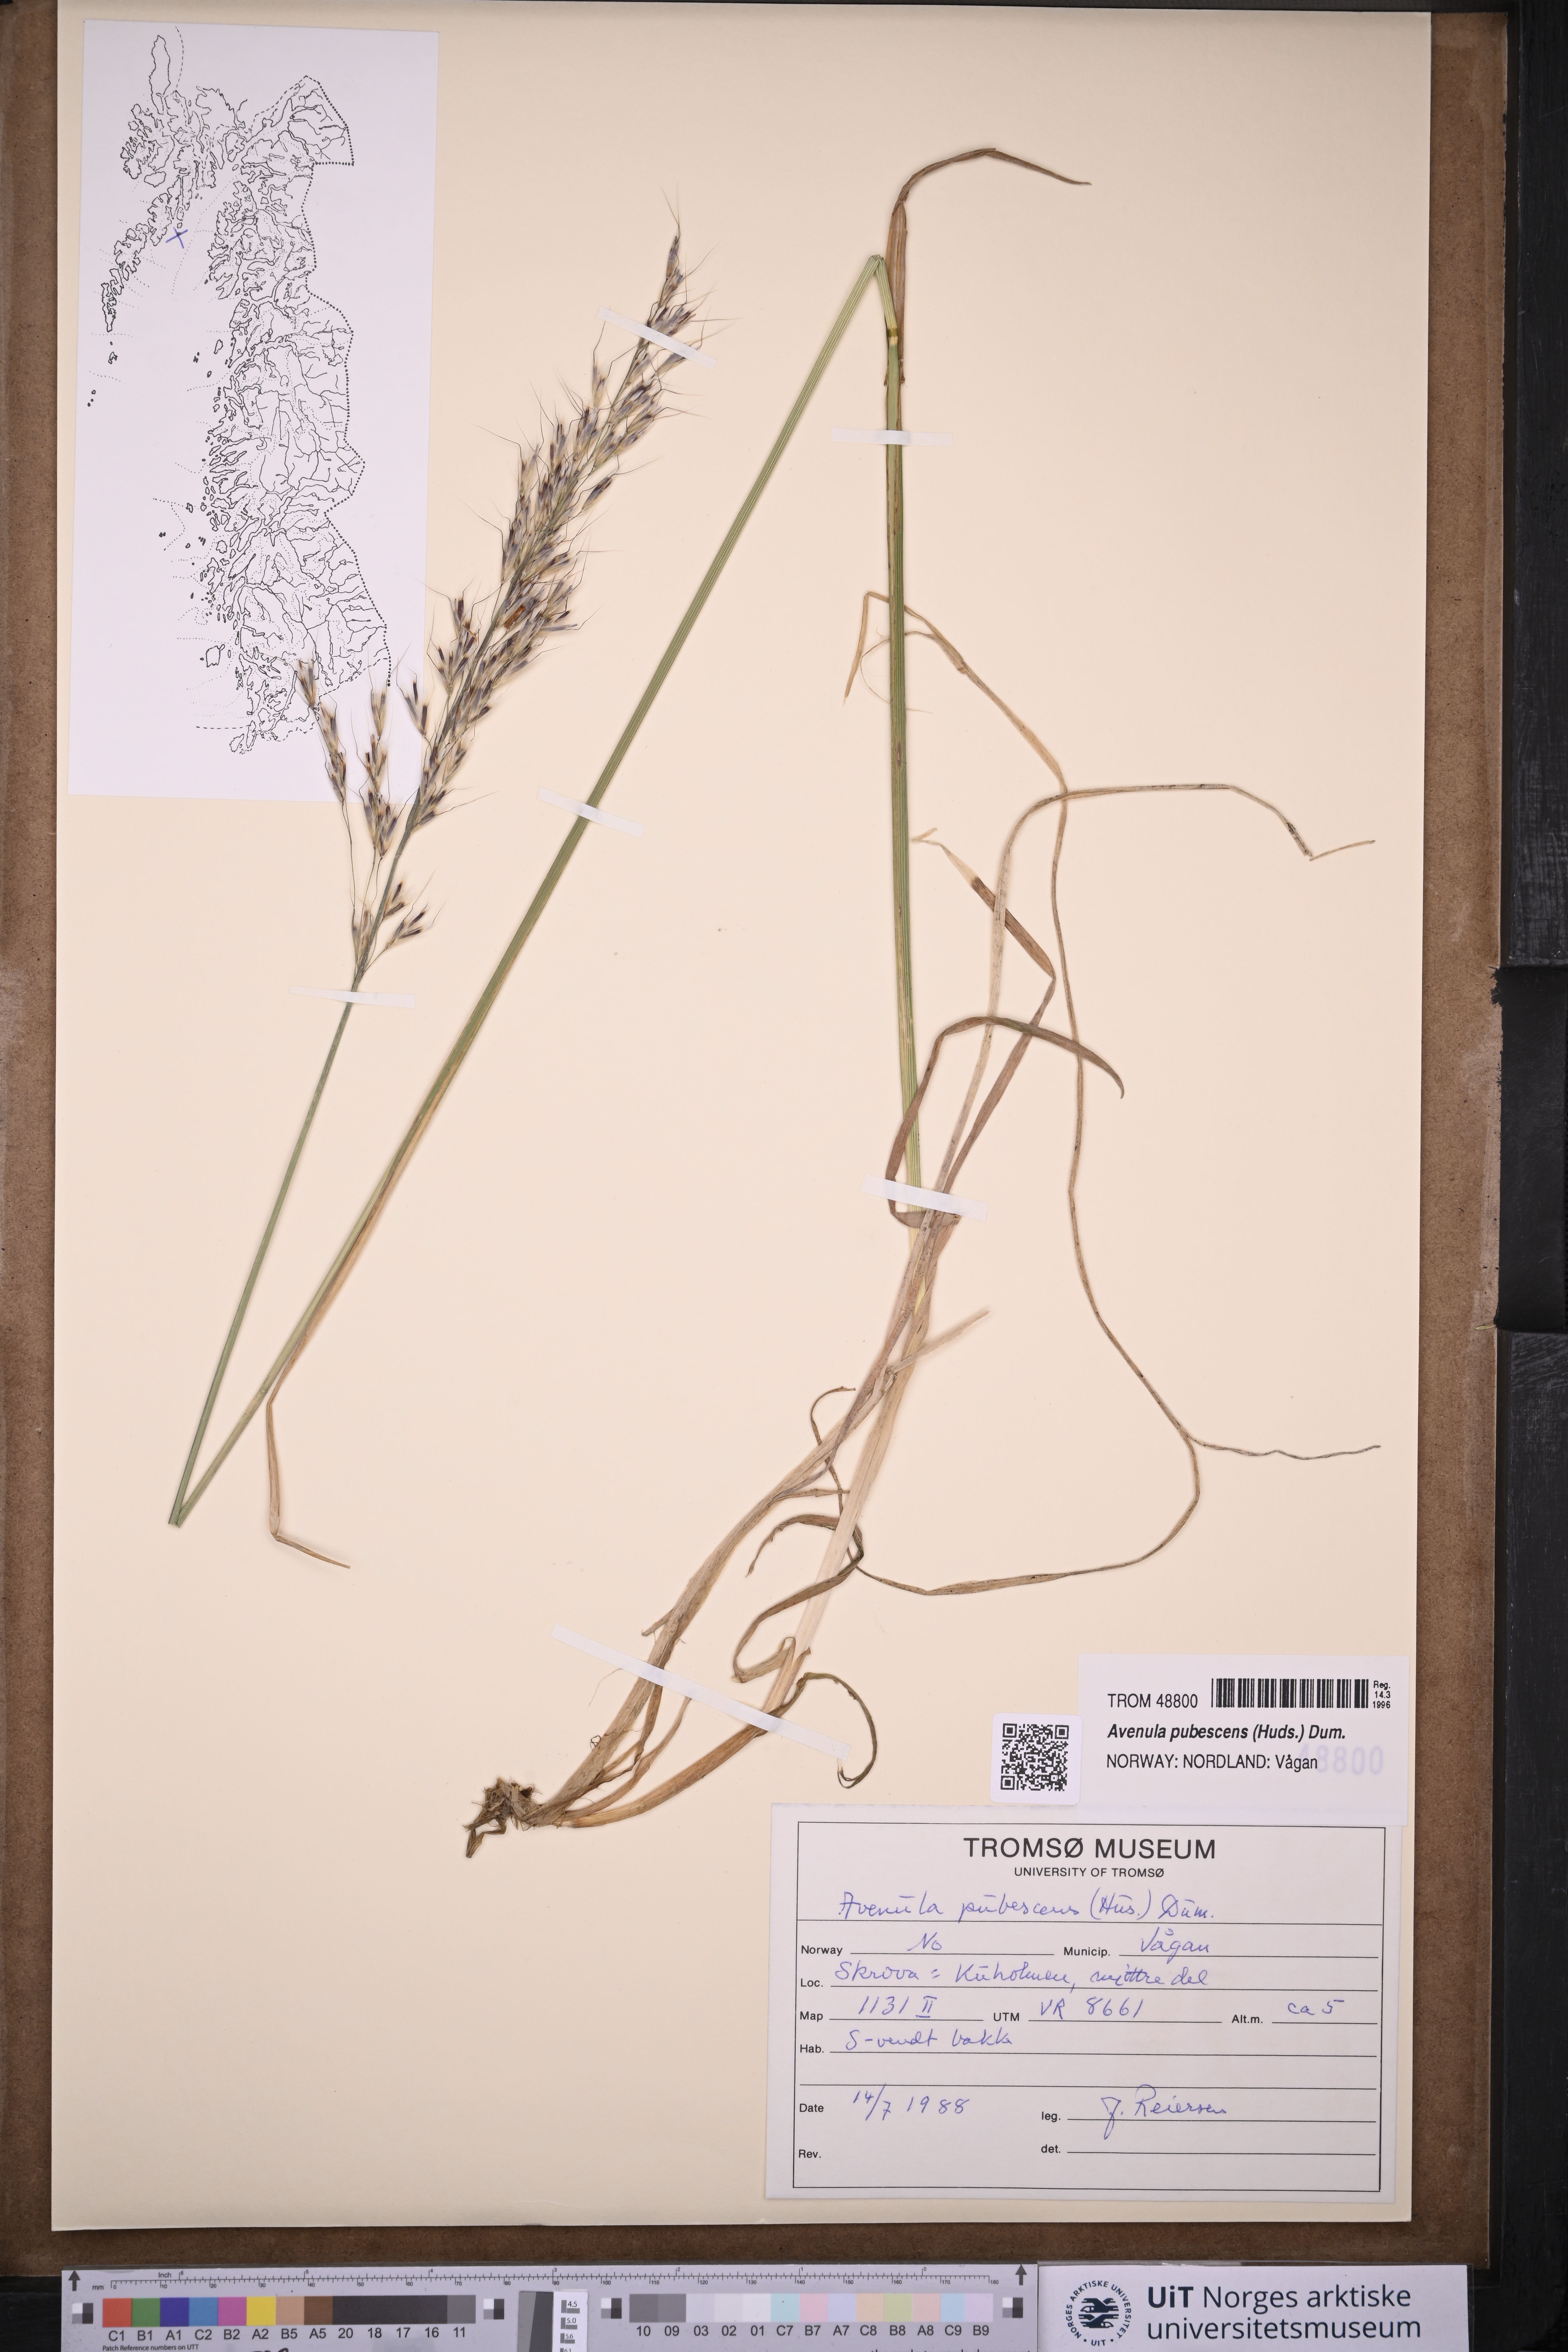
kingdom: Plantae
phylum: Tracheophyta
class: Liliopsida
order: Poales
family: Poaceae
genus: Avenula
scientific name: Avenula pubescens
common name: Downy alpine oatgrass
